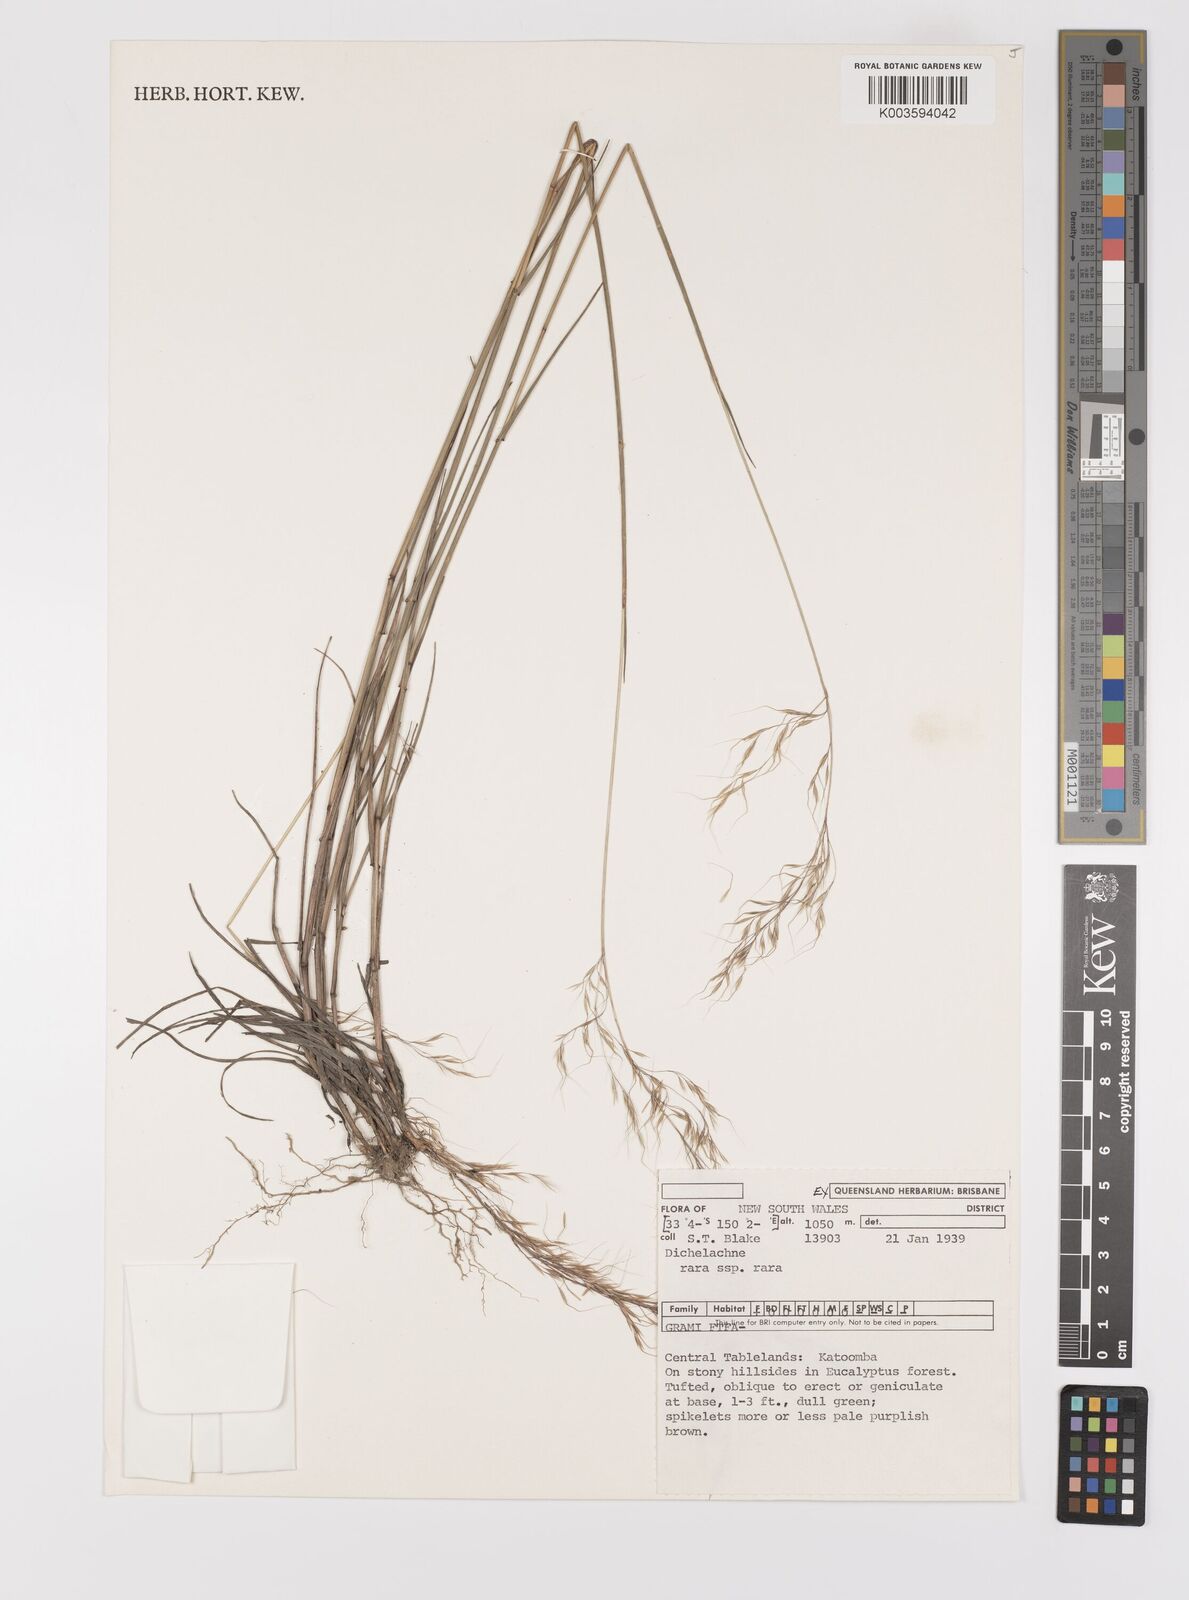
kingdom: Plantae
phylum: Tracheophyta
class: Liliopsida
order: Poales
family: Poaceae
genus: Dichelachne
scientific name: Dichelachne rara
